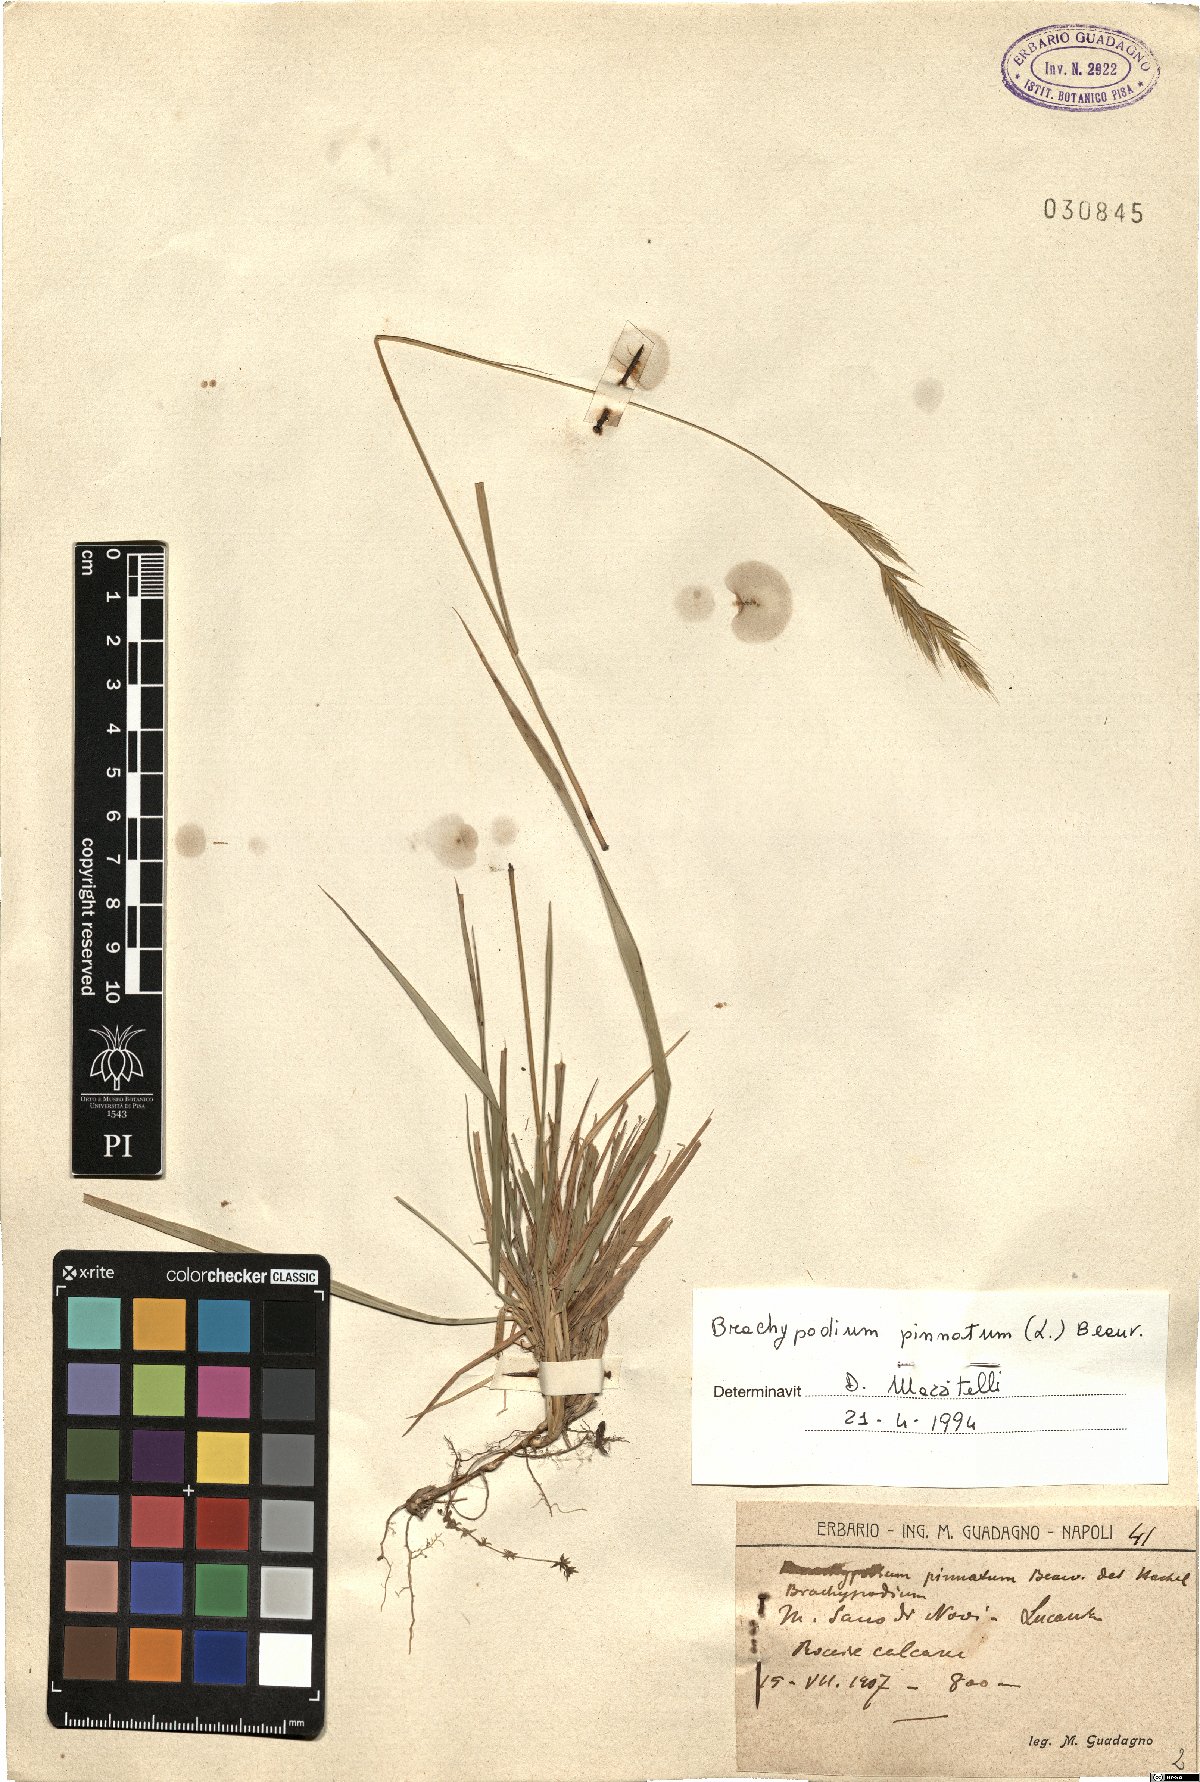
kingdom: Plantae
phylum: Tracheophyta
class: Liliopsida
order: Poales
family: Poaceae
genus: Brachypodium
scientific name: Brachypodium pinnatum
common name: Tor grass
